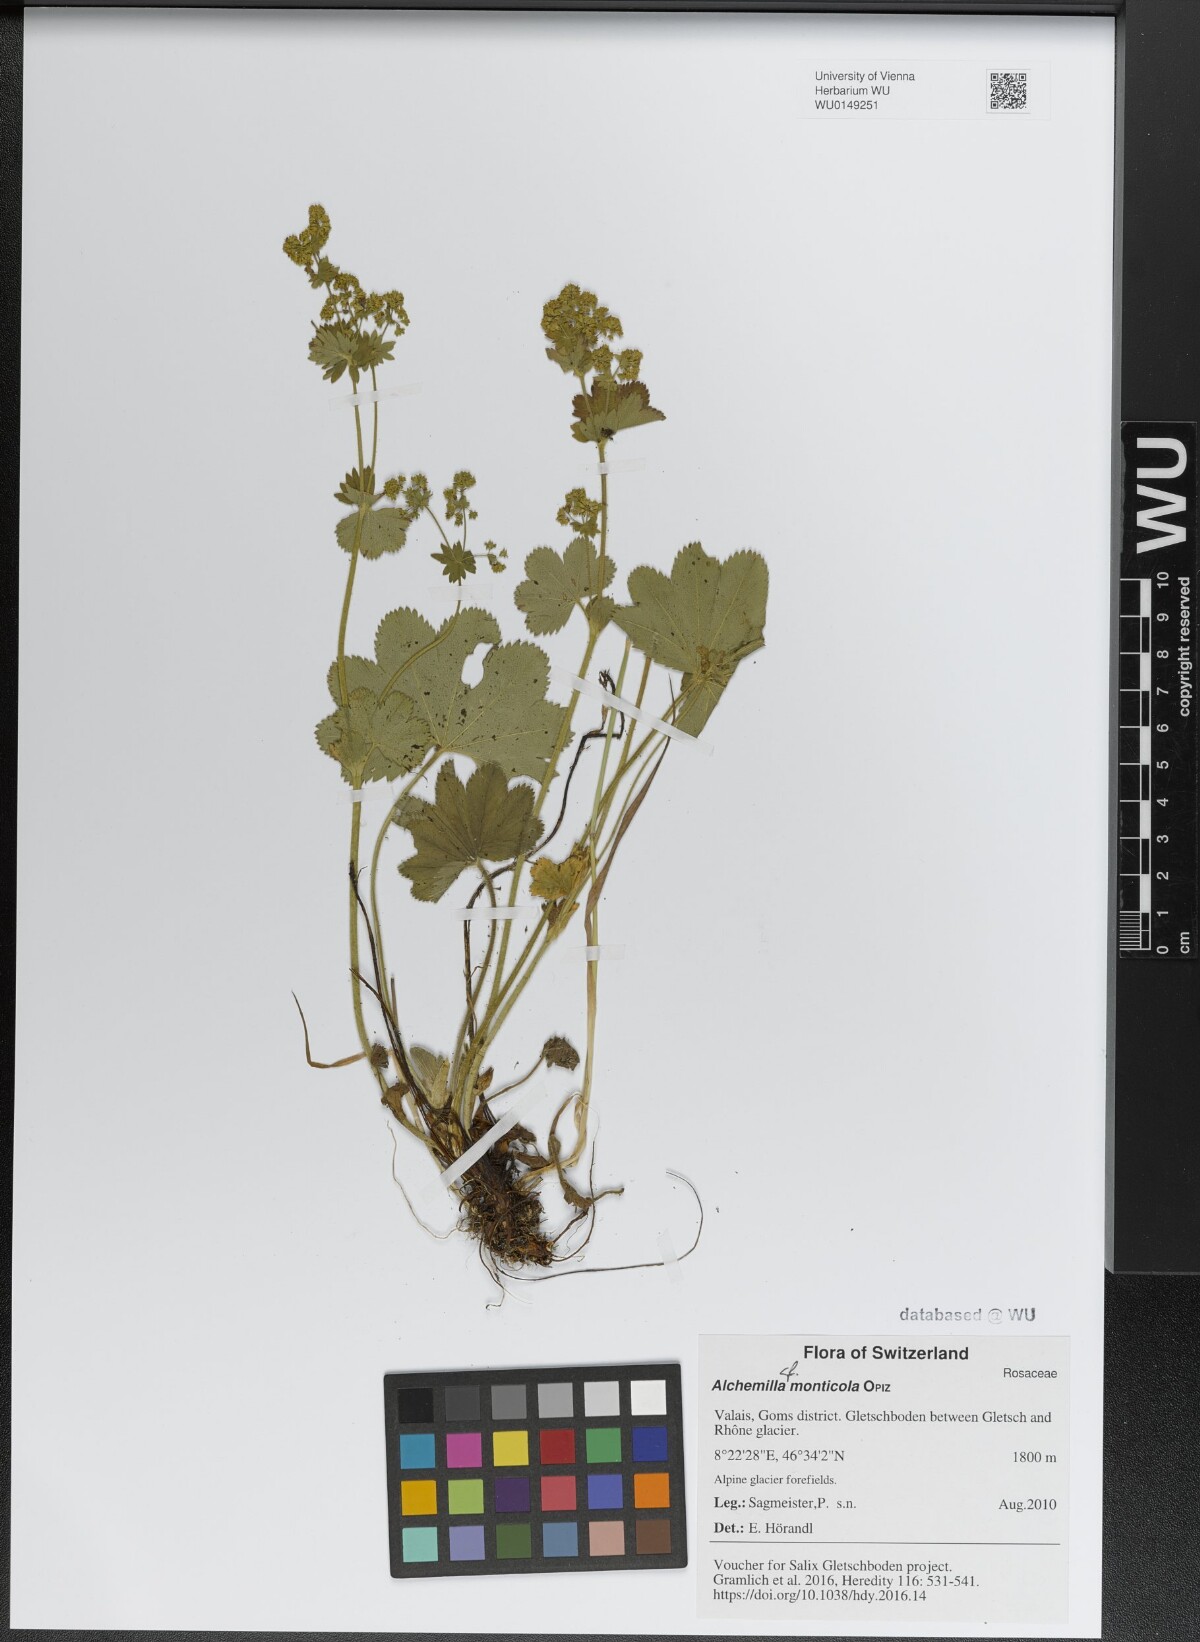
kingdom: Plantae
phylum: Tracheophyta
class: Magnoliopsida
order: Rosales
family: Rosaceae
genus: Alchemilla
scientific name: Alchemilla monticola
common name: Hairy lady's mantle
